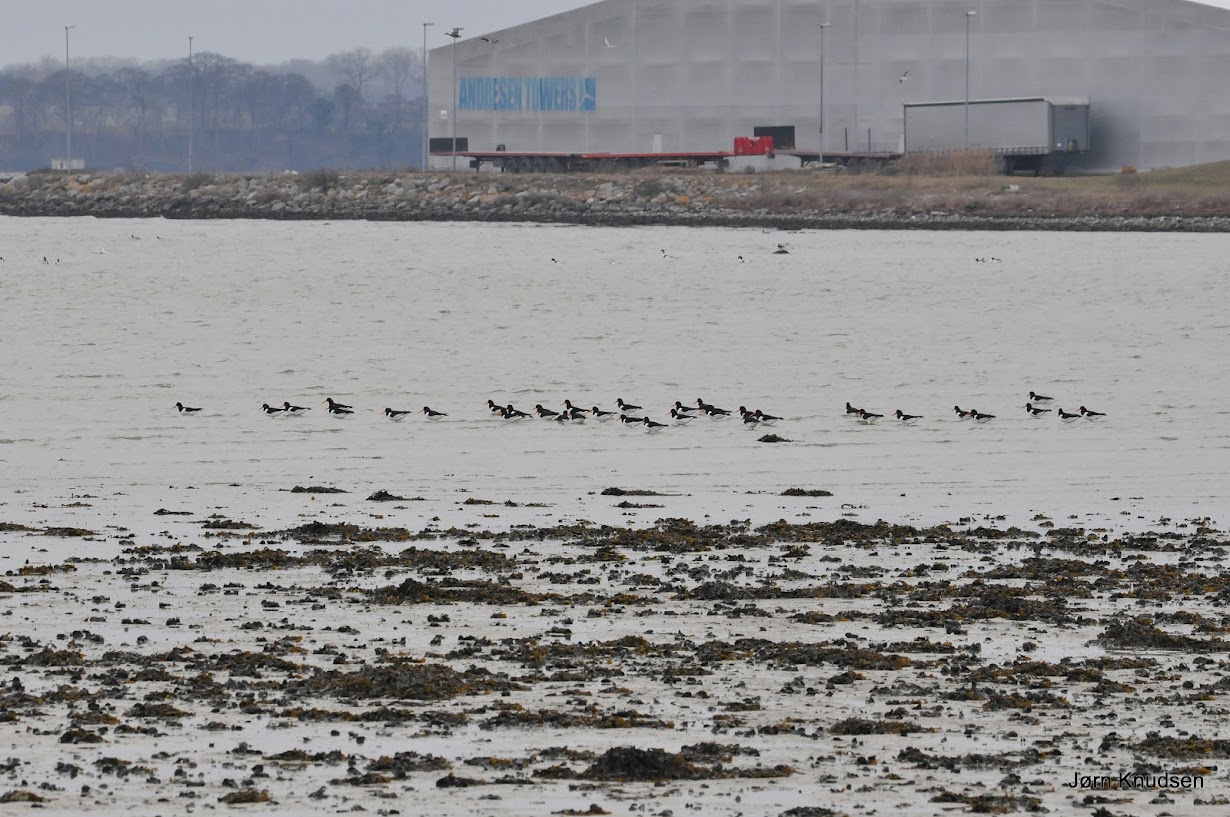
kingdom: Animalia
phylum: Chordata
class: Aves
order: Charadriiformes
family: Haematopodidae
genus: Haematopus
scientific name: Haematopus ostralegus
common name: Strandskade
